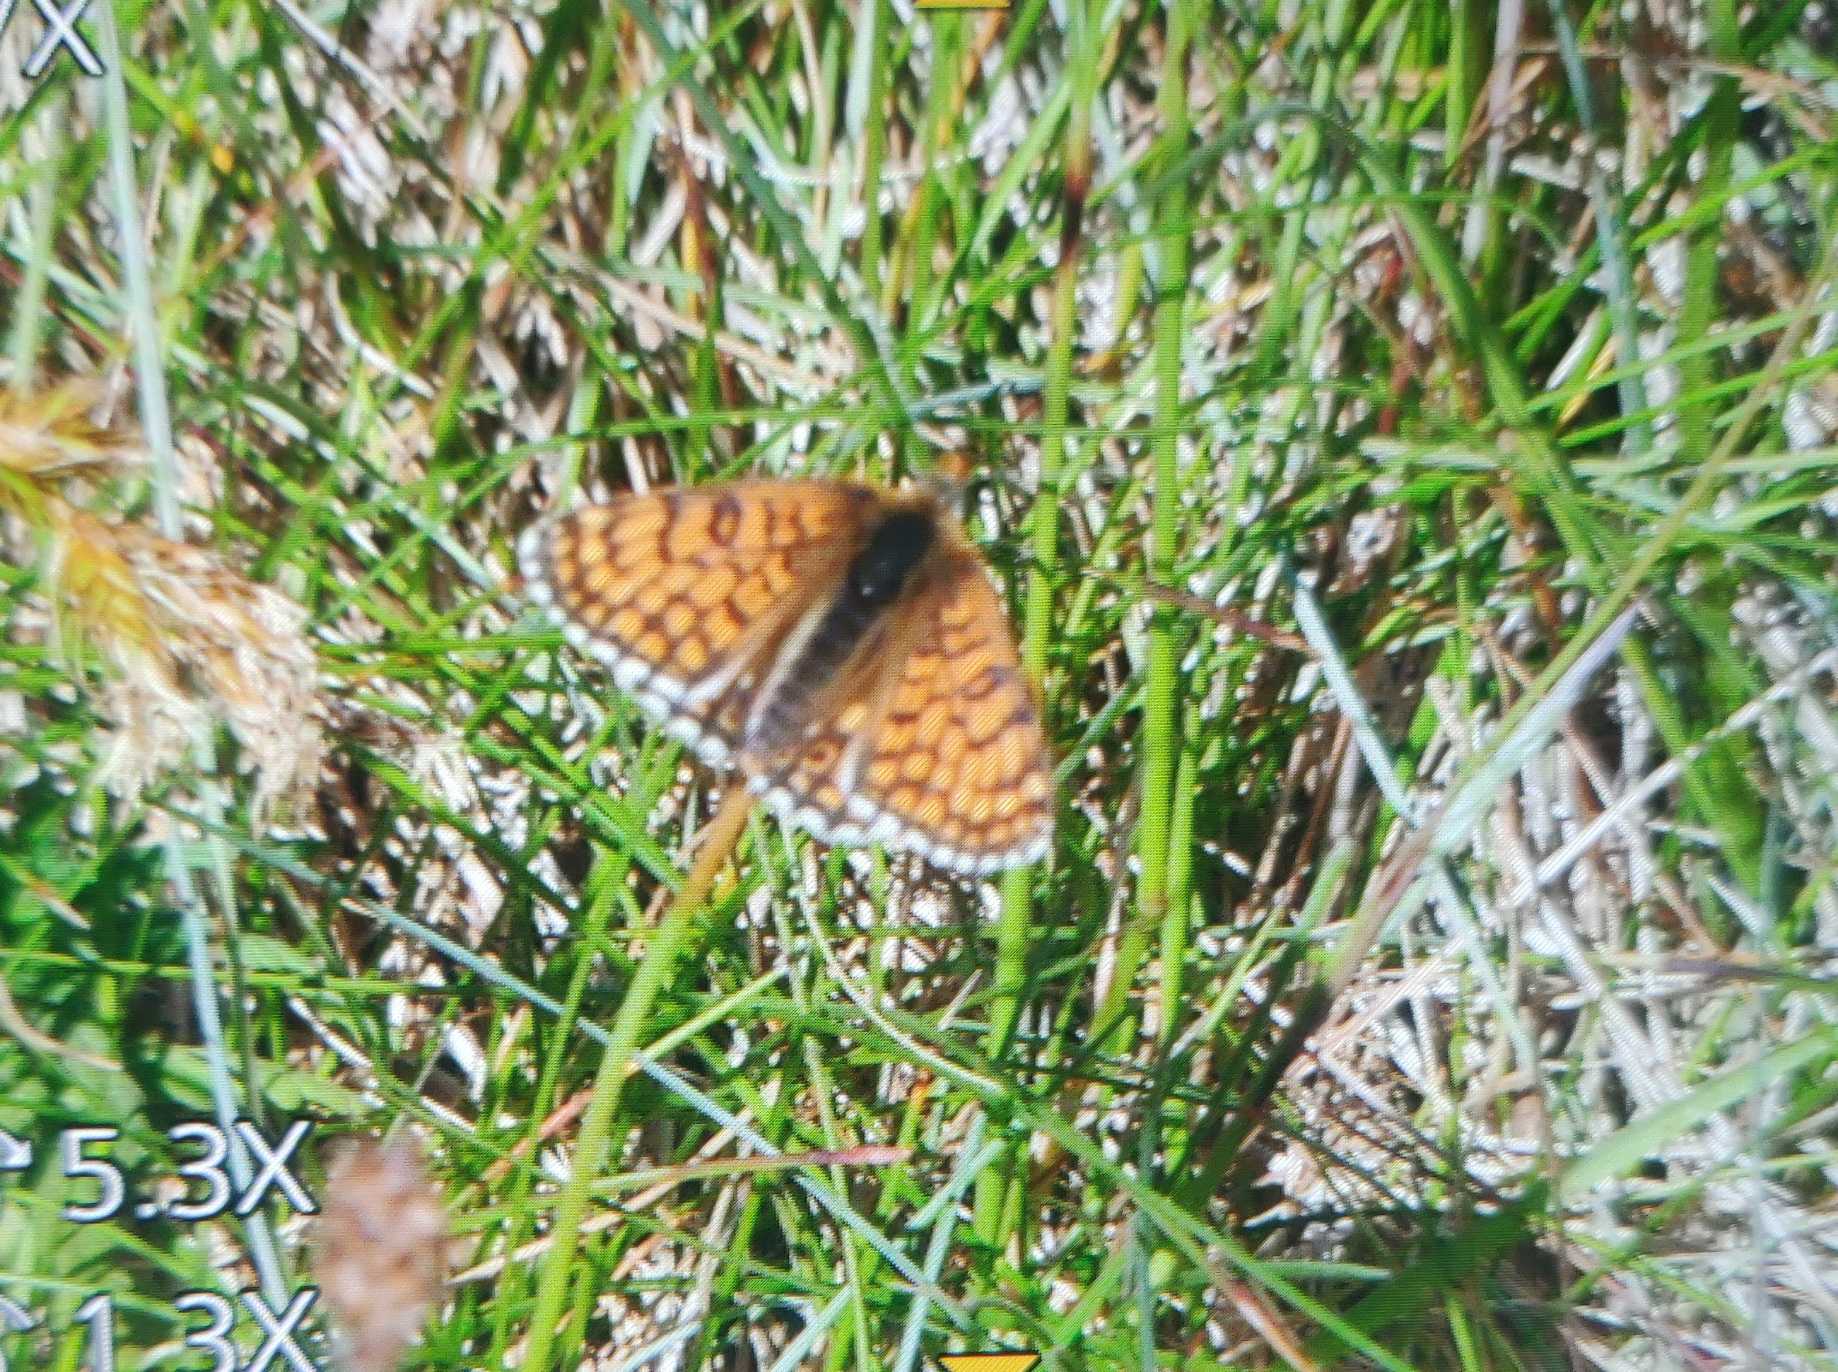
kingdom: Animalia
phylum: Arthropoda
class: Insecta
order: Lepidoptera
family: Nymphalidae
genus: Melitaea
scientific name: Melitaea cinxia
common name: Okkergul pletvinge
